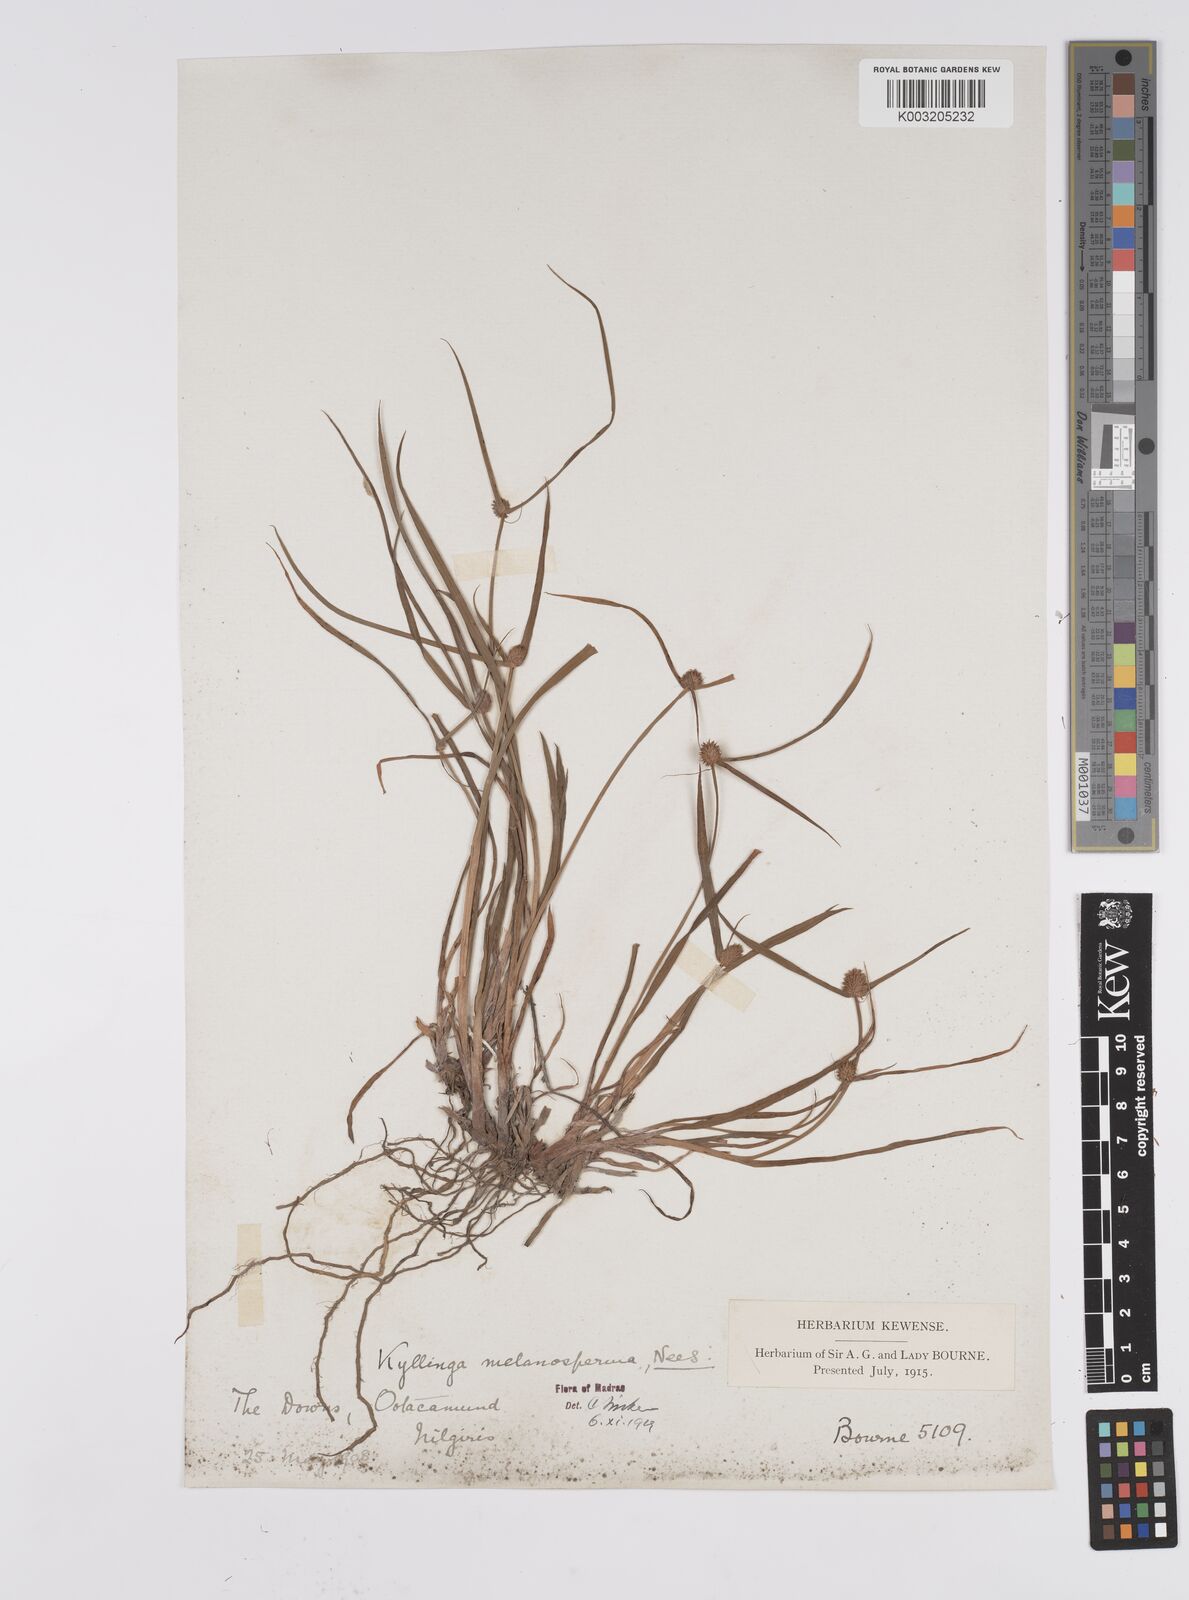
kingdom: Plantae
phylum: Tracheophyta
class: Liliopsida
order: Poales
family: Cyperaceae
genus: Cyperus
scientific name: Cyperus melanospermus
